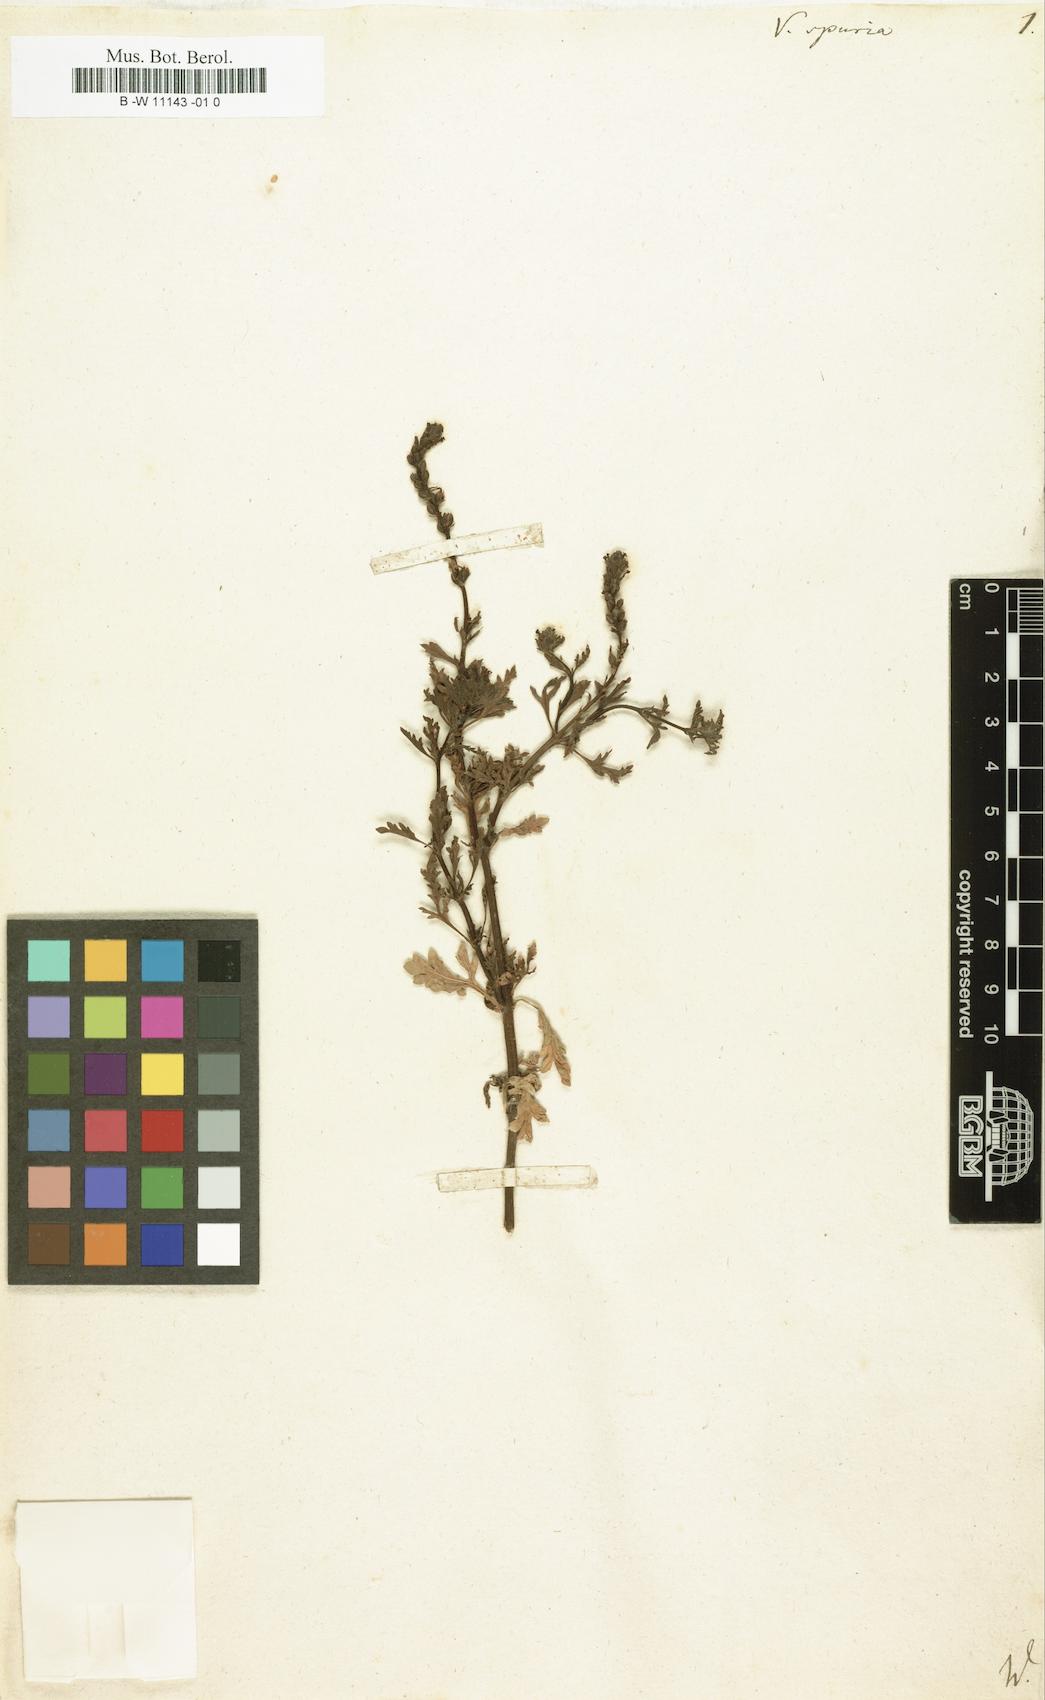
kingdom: Plantae
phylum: Tracheophyta
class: Magnoliopsida
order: Lamiales
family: Verbenaceae
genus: Verbena
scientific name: Verbena officinalis
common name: Vervain
